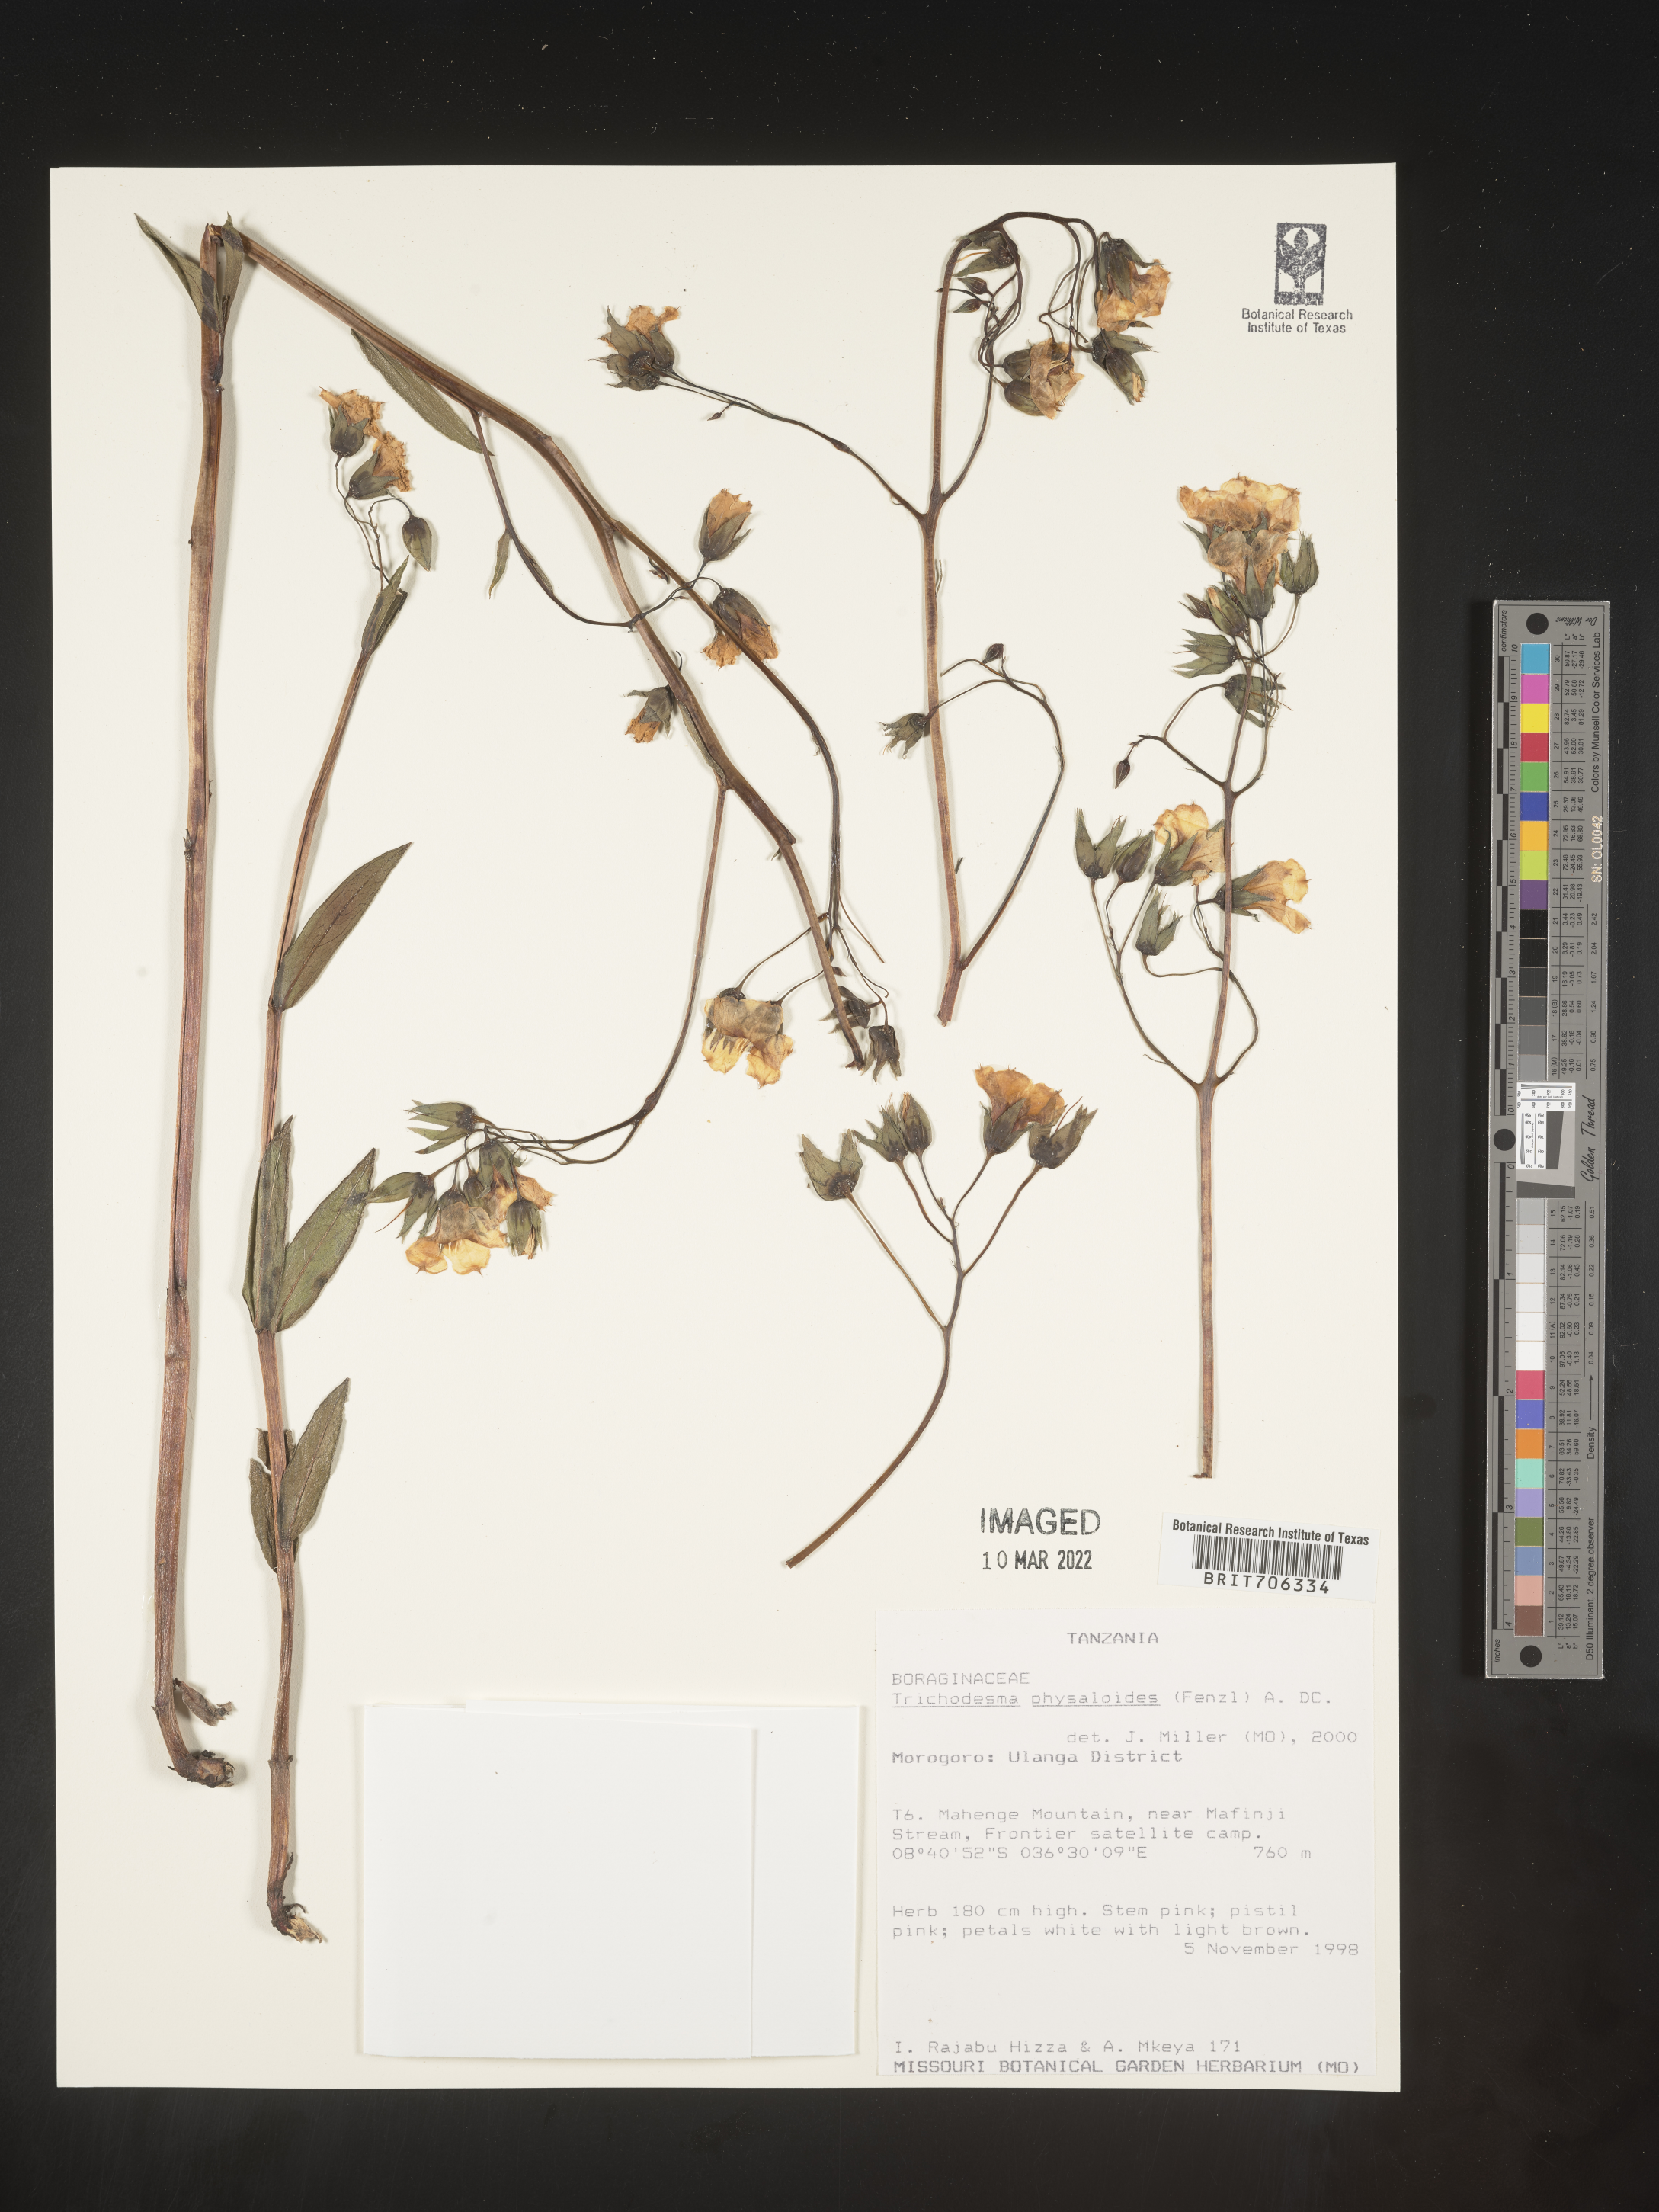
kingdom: Plantae
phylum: Tracheophyta
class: Magnoliopsida
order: Boraginales
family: Boraginaceae
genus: Trichodesma
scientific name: Trichodesma
